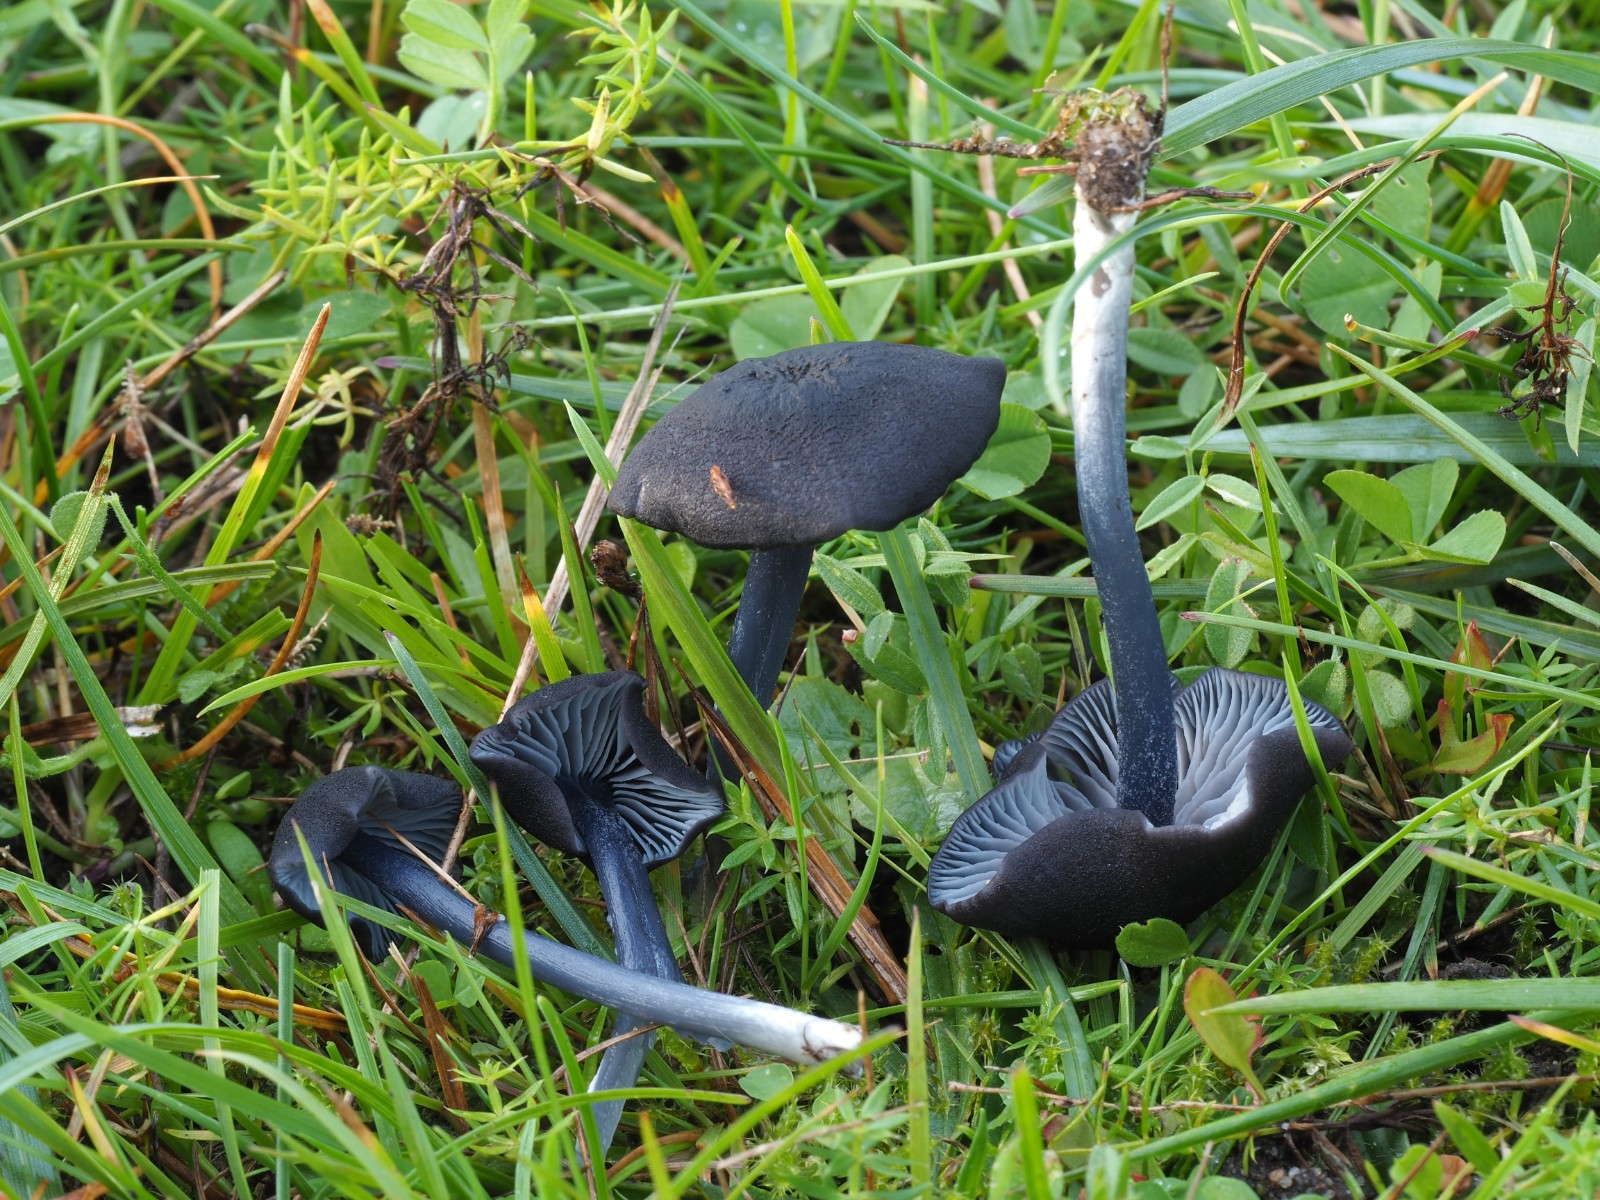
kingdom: Fungi
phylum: Basidiomycota
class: Agaricomycetes
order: Agaricales
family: Entolomataceae
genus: Entoloma
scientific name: Entoloma chalybeum
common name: blåbladet rødblad
